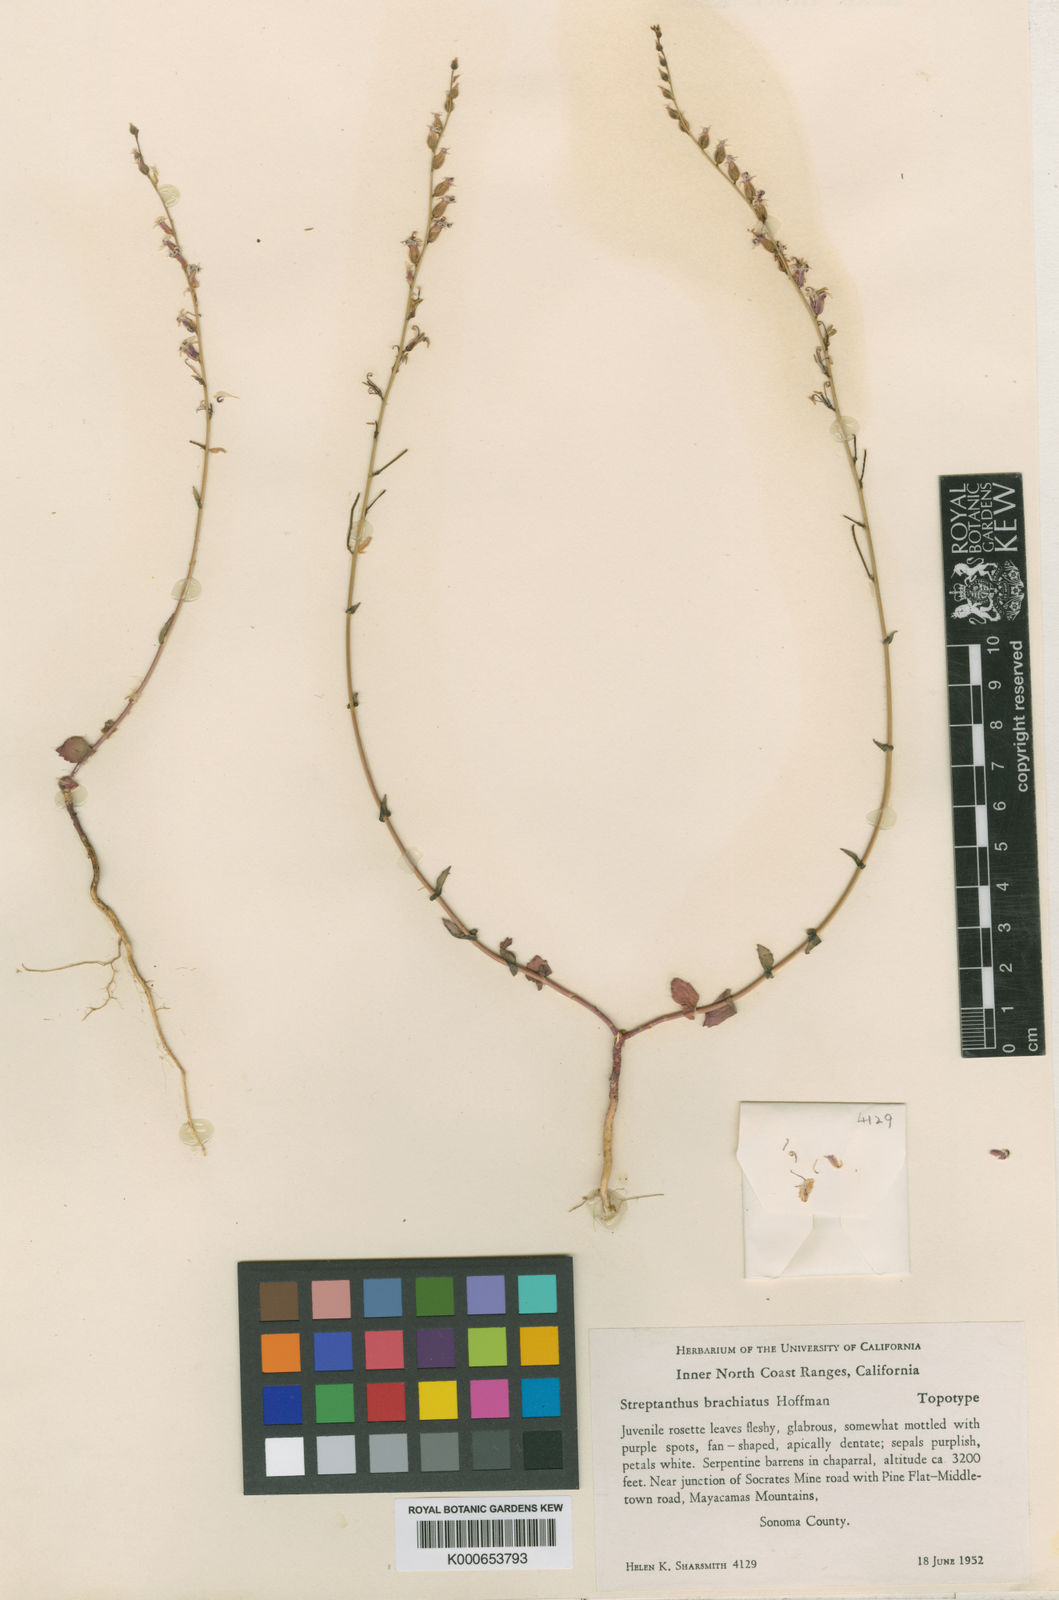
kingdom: Plantae
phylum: Tracheophyta
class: Magnoliopsida
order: Brassicales
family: Brassicaceae
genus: Streptanthus
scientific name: Streptanthus brachiatus
